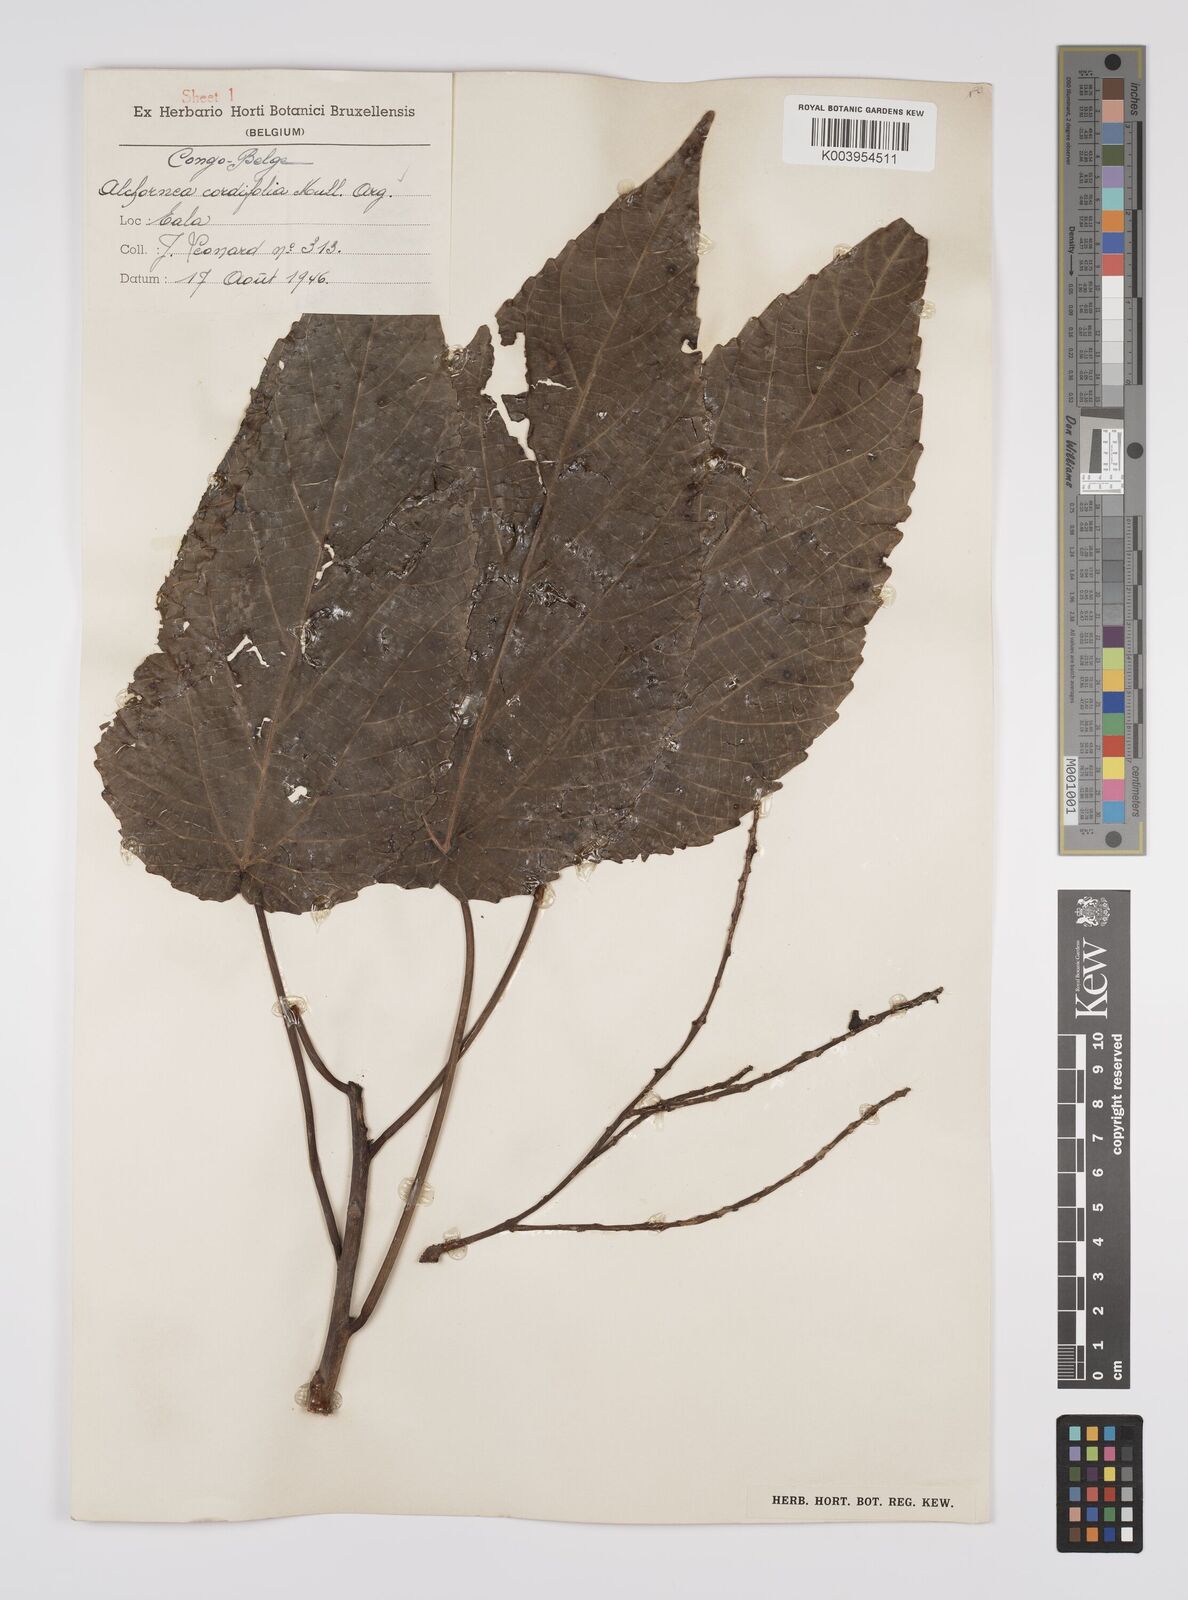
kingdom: Plantae
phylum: Tracheophyta
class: Magnoliopsida
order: Malpighiales
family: Euphorbiaceae
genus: Alchornea
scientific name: Alchornea cordifolia
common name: Christmasbush
